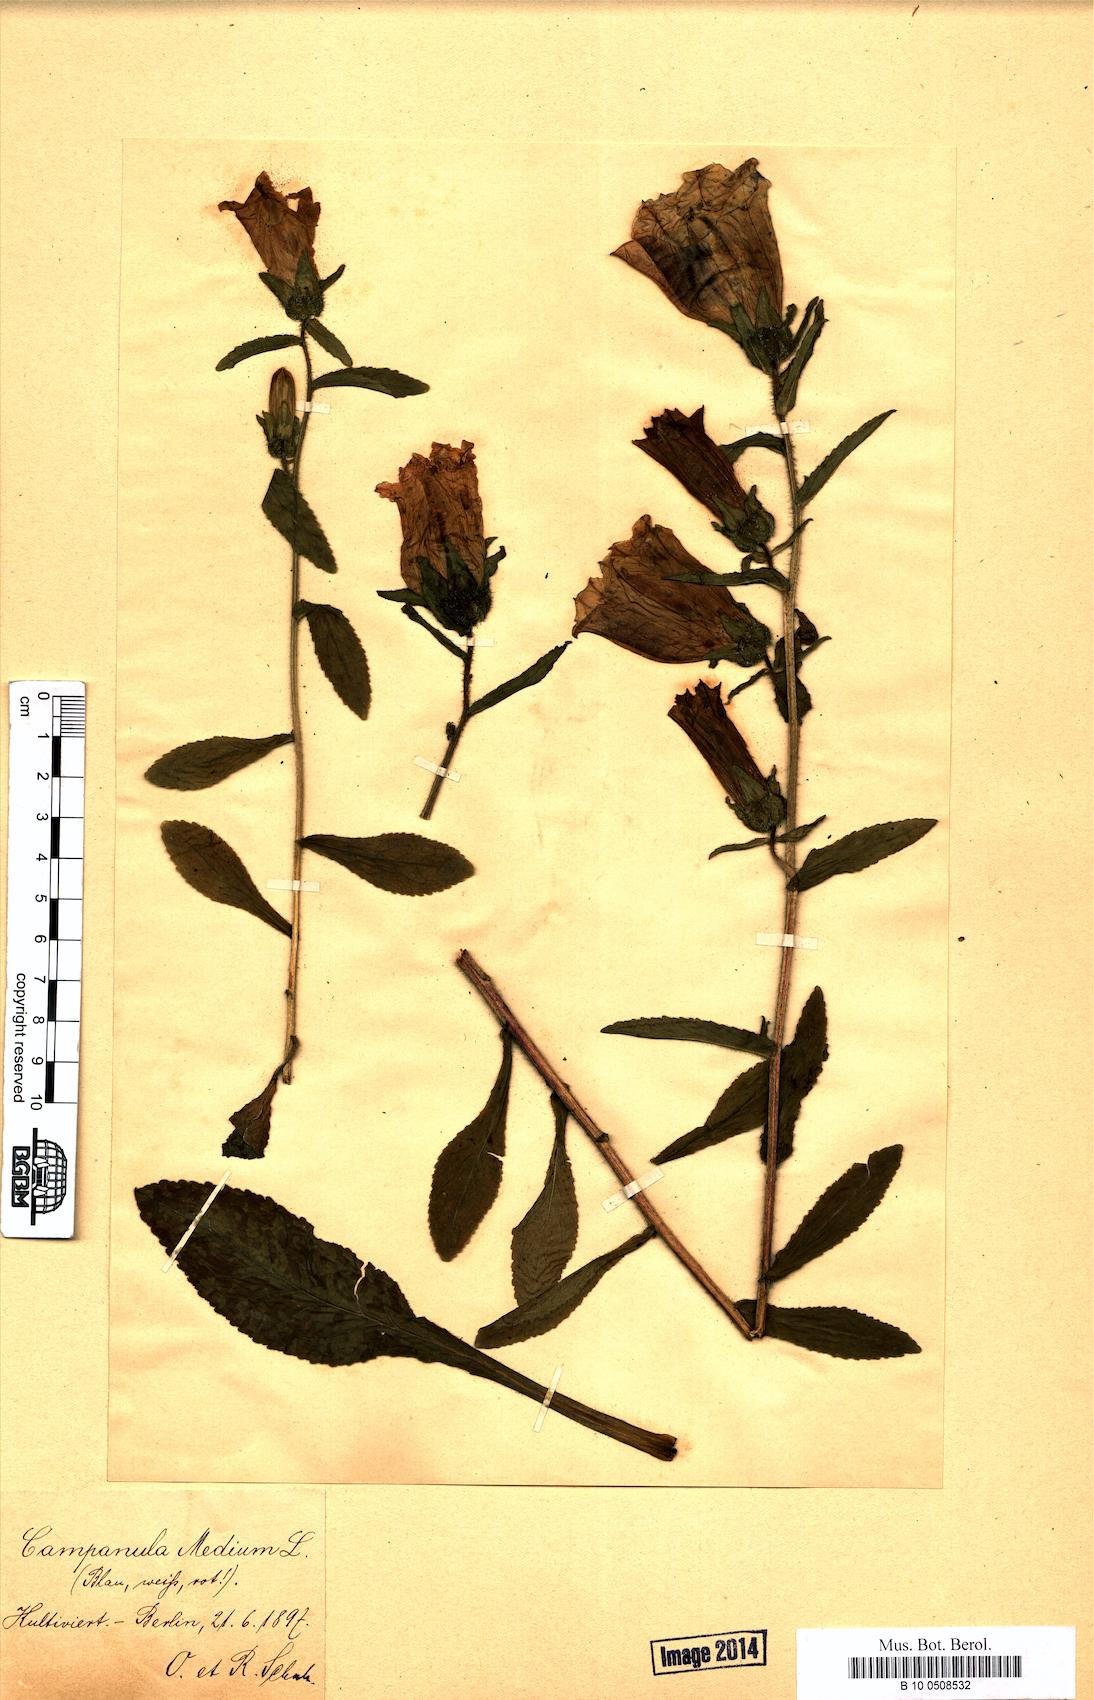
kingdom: Plantae
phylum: Tracheophyta
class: Magnoliopsida
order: Asterales
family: Campanulaceae
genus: Campanula
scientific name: Campanula medium
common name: Canterbury bells
